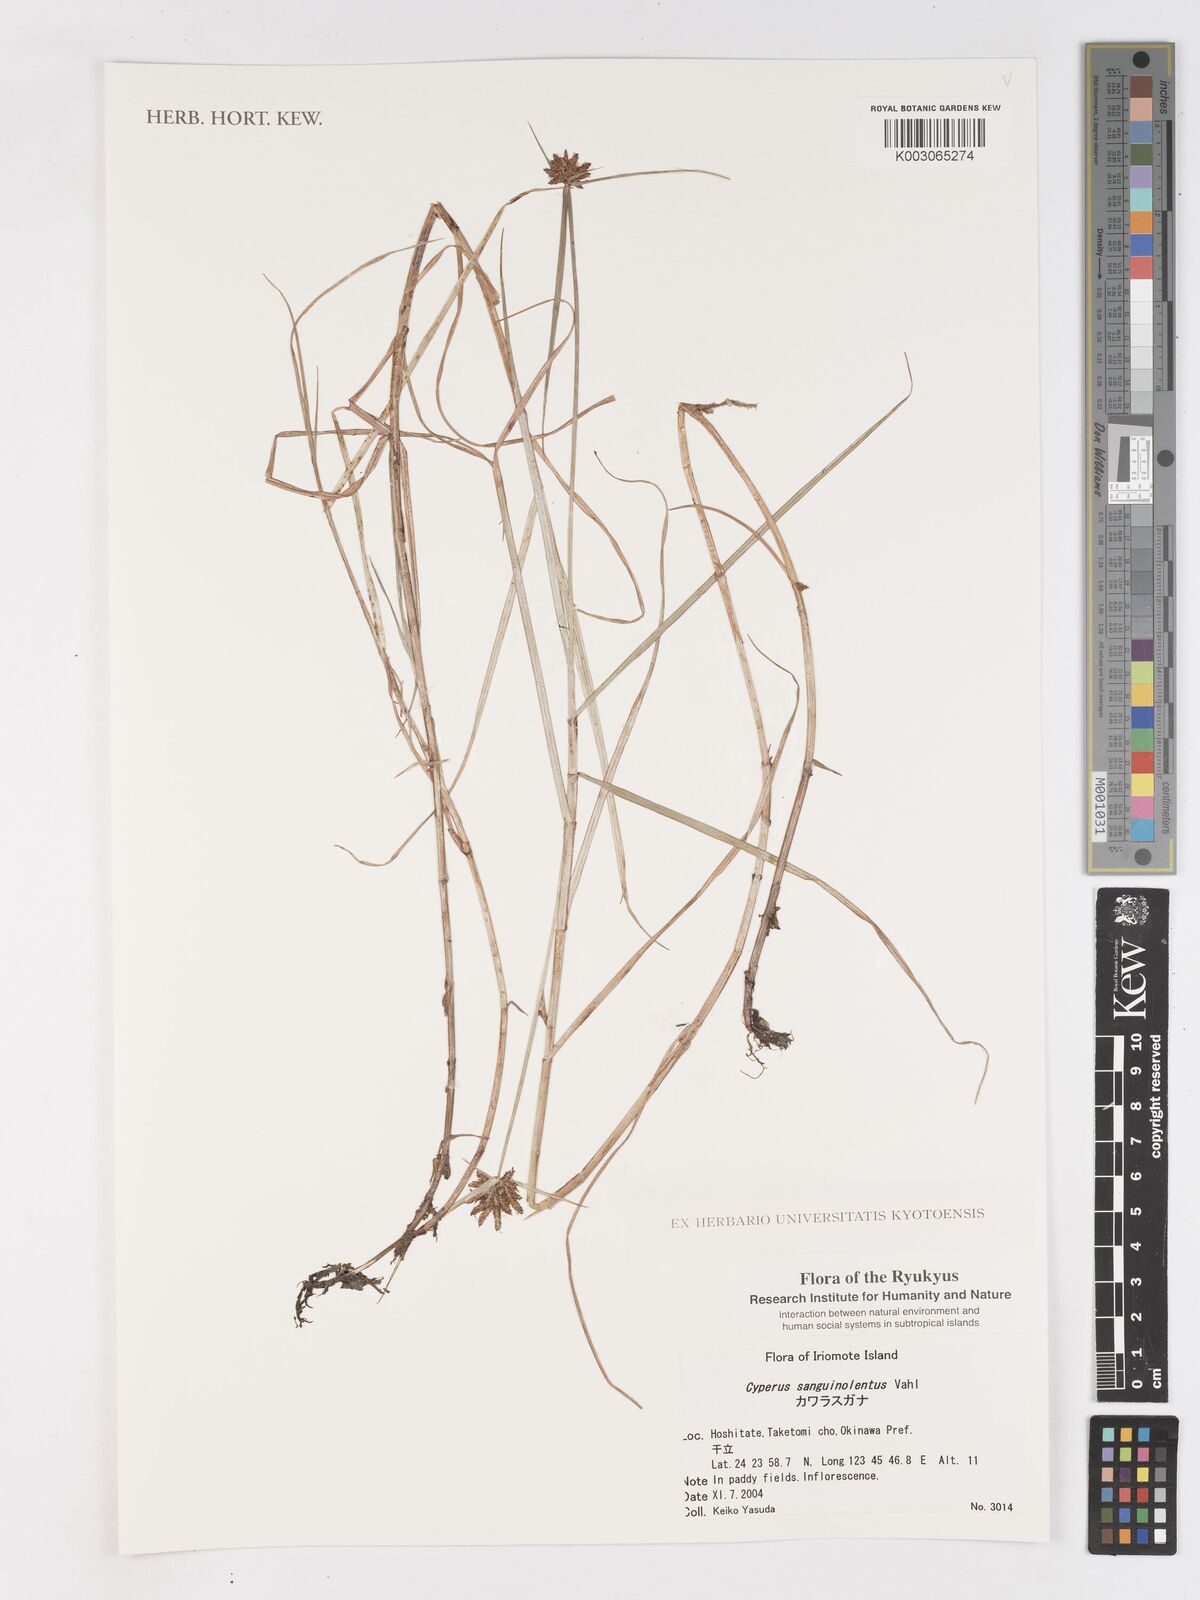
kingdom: Plantae
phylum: Tracheophyta
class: Liliopsida
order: Poales
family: Cyperaceae
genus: Cyperus
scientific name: Cyperus sanguinolentus
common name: Purpleglume flatsedge
